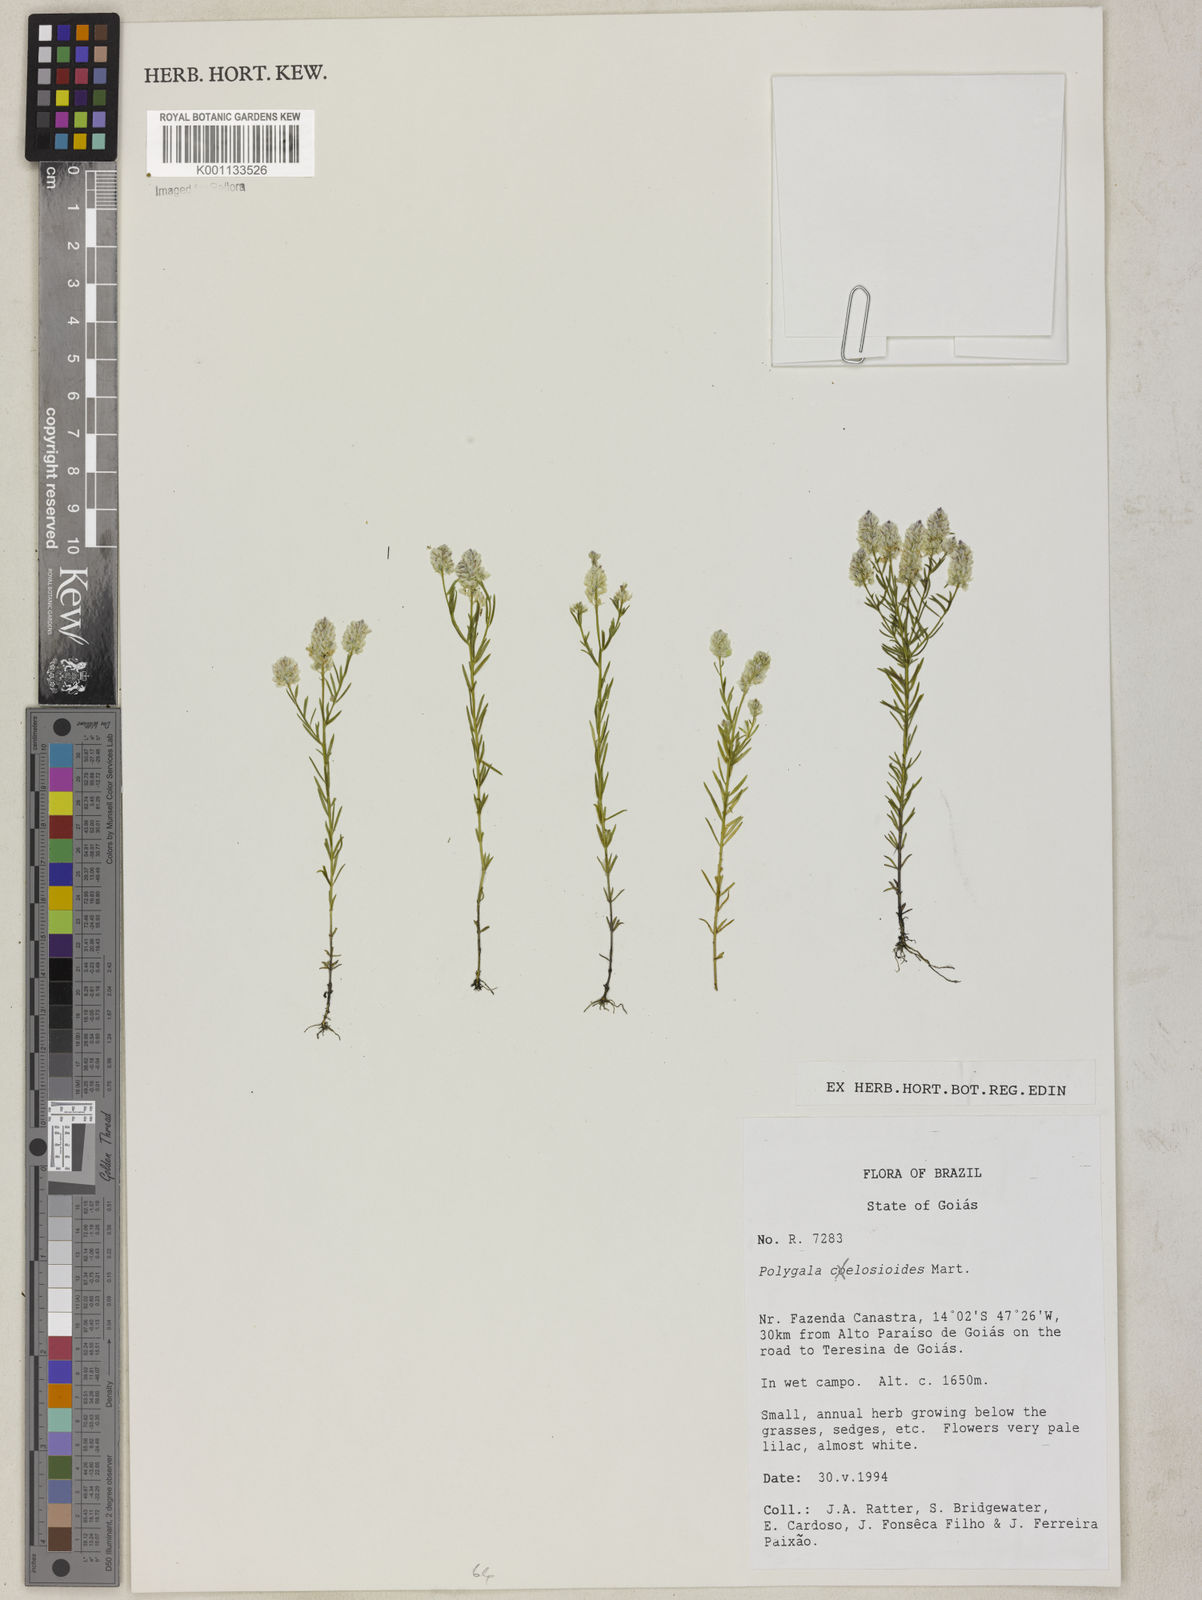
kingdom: Plantae
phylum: Tracheophyta
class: Magnoliopsida
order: Fabales
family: Polygalaceae
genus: Polygala
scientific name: Polygala celosioides
